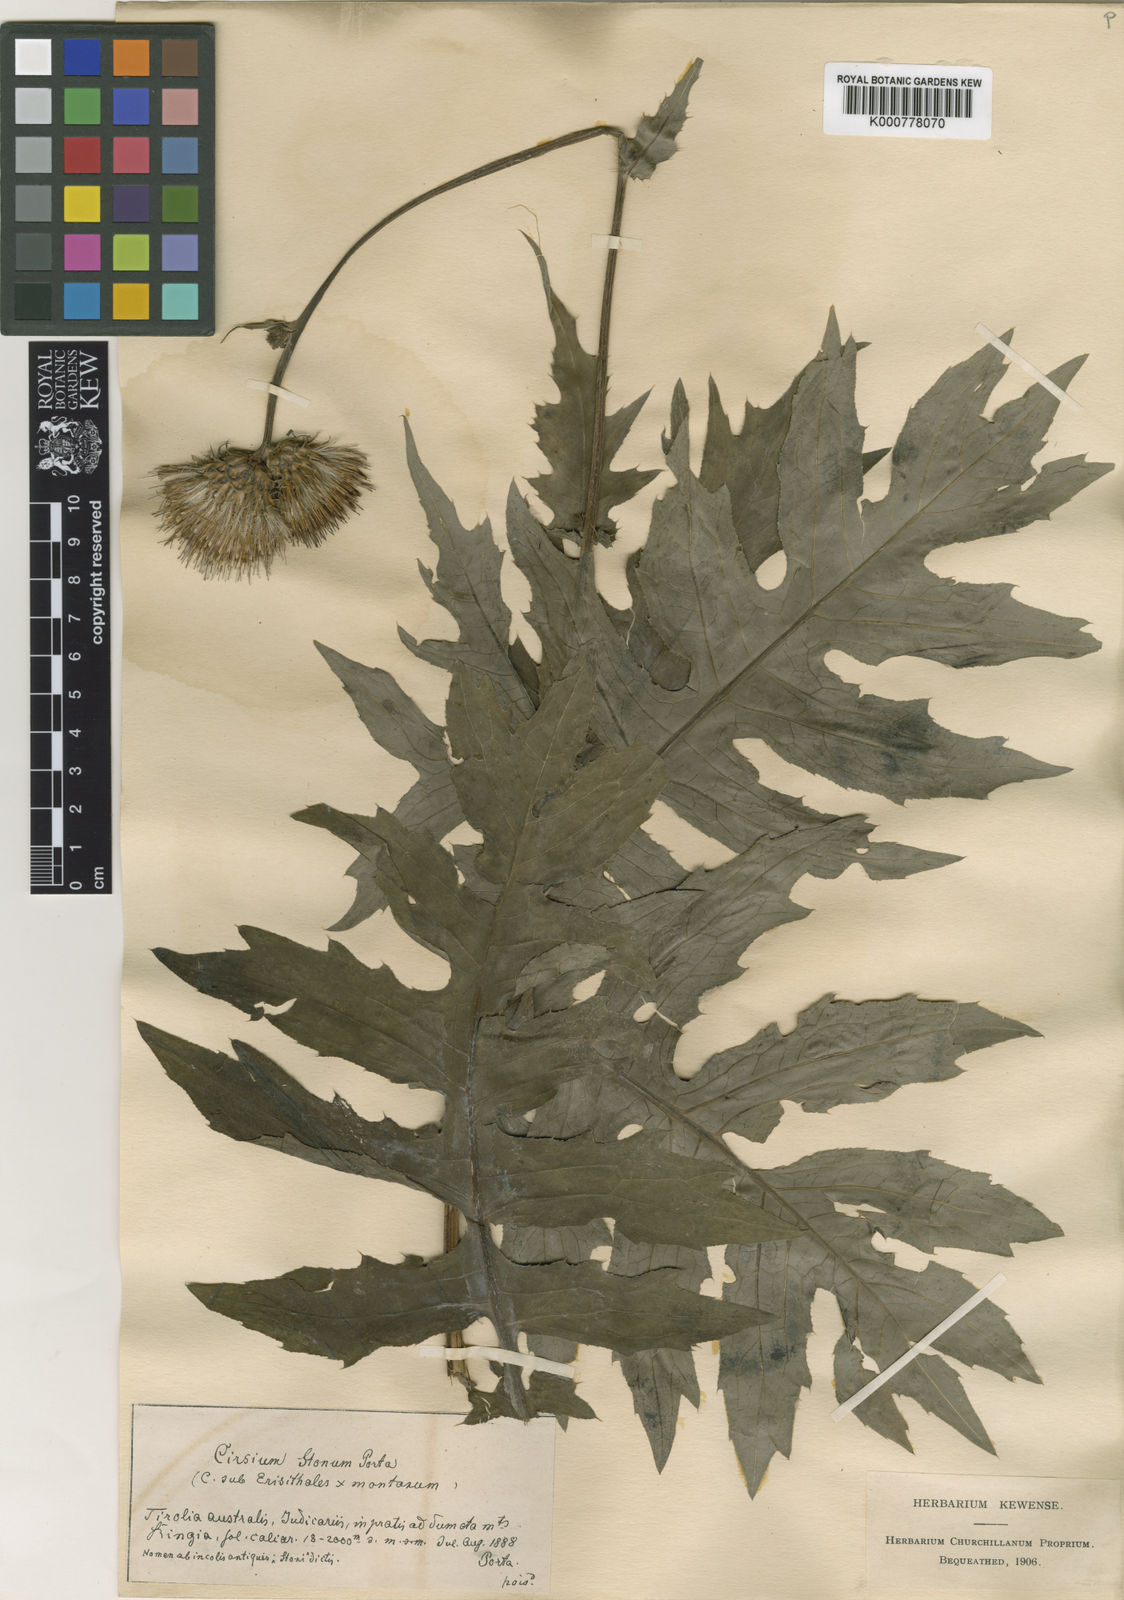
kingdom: Plantae
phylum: Tracheophyta
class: Magnoliopsida
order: Asterales
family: Asteraceae
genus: Cirsium
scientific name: Cirsium erisithales
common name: Yellow thistle
